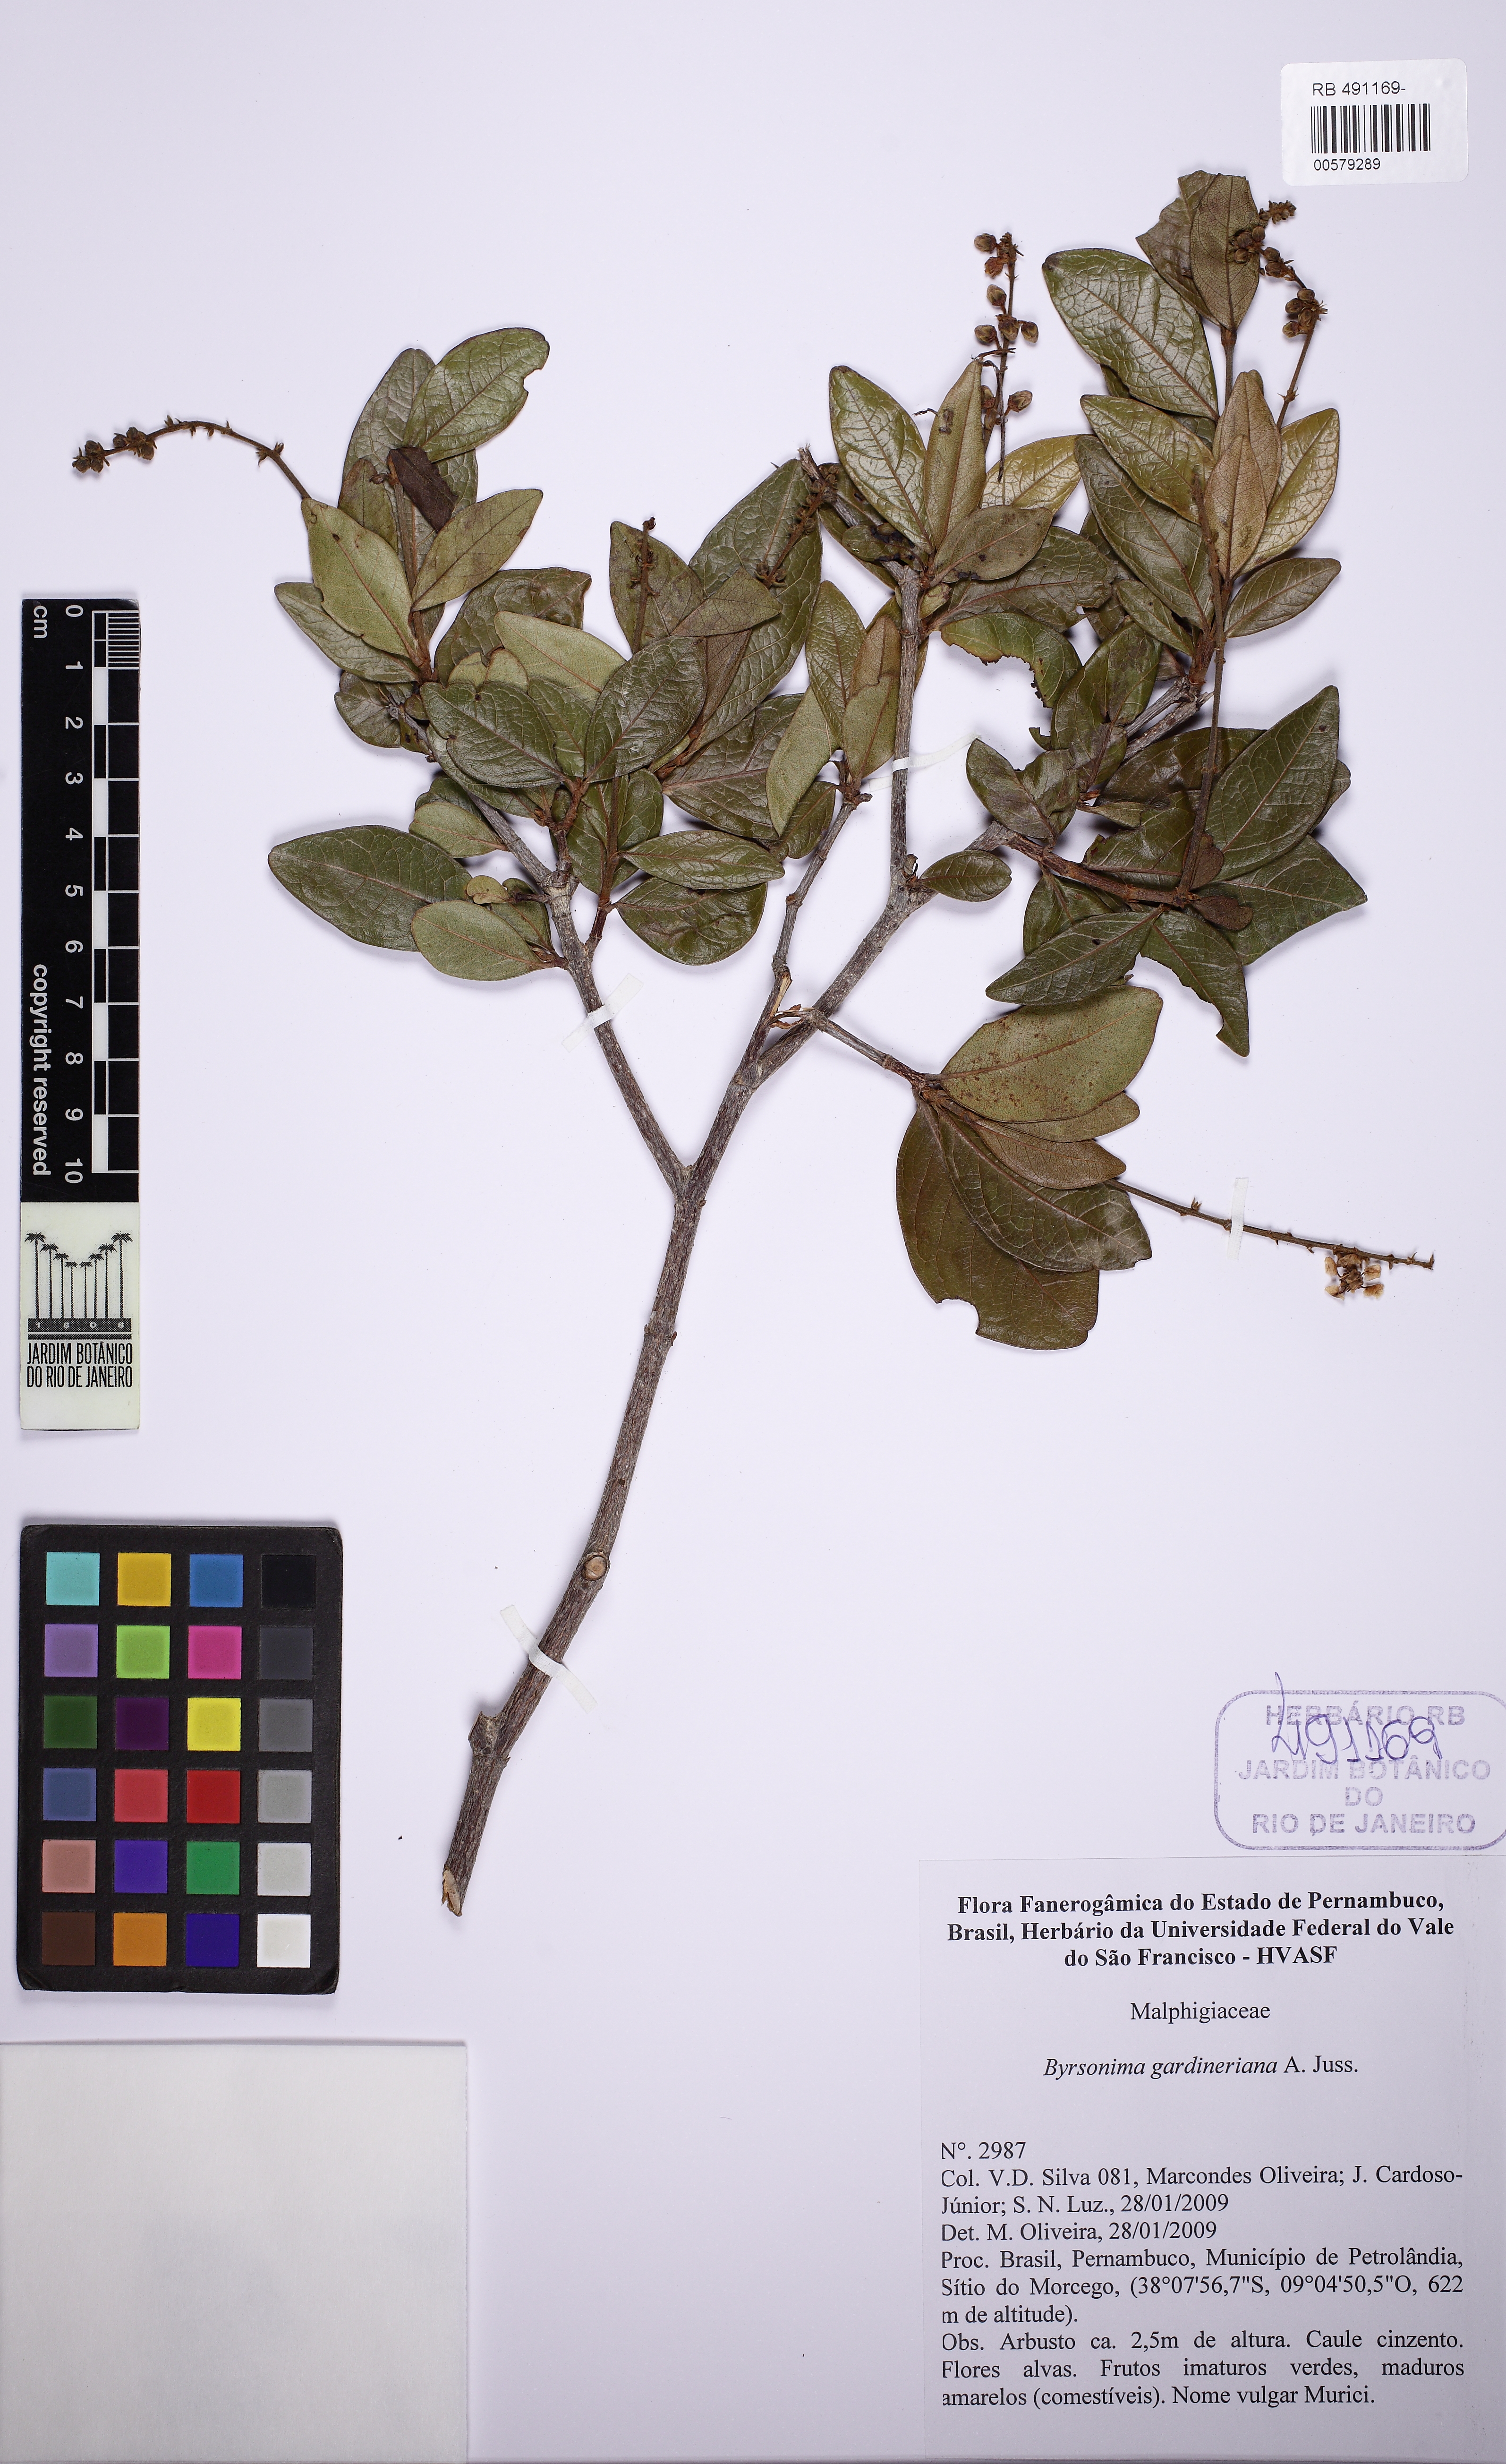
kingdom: Plantae
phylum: Tracheophyta
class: Magnoliopsida
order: Malpighiales
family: Malpighiaceae
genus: Byrsonima
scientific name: Byrsonima gardneriana
